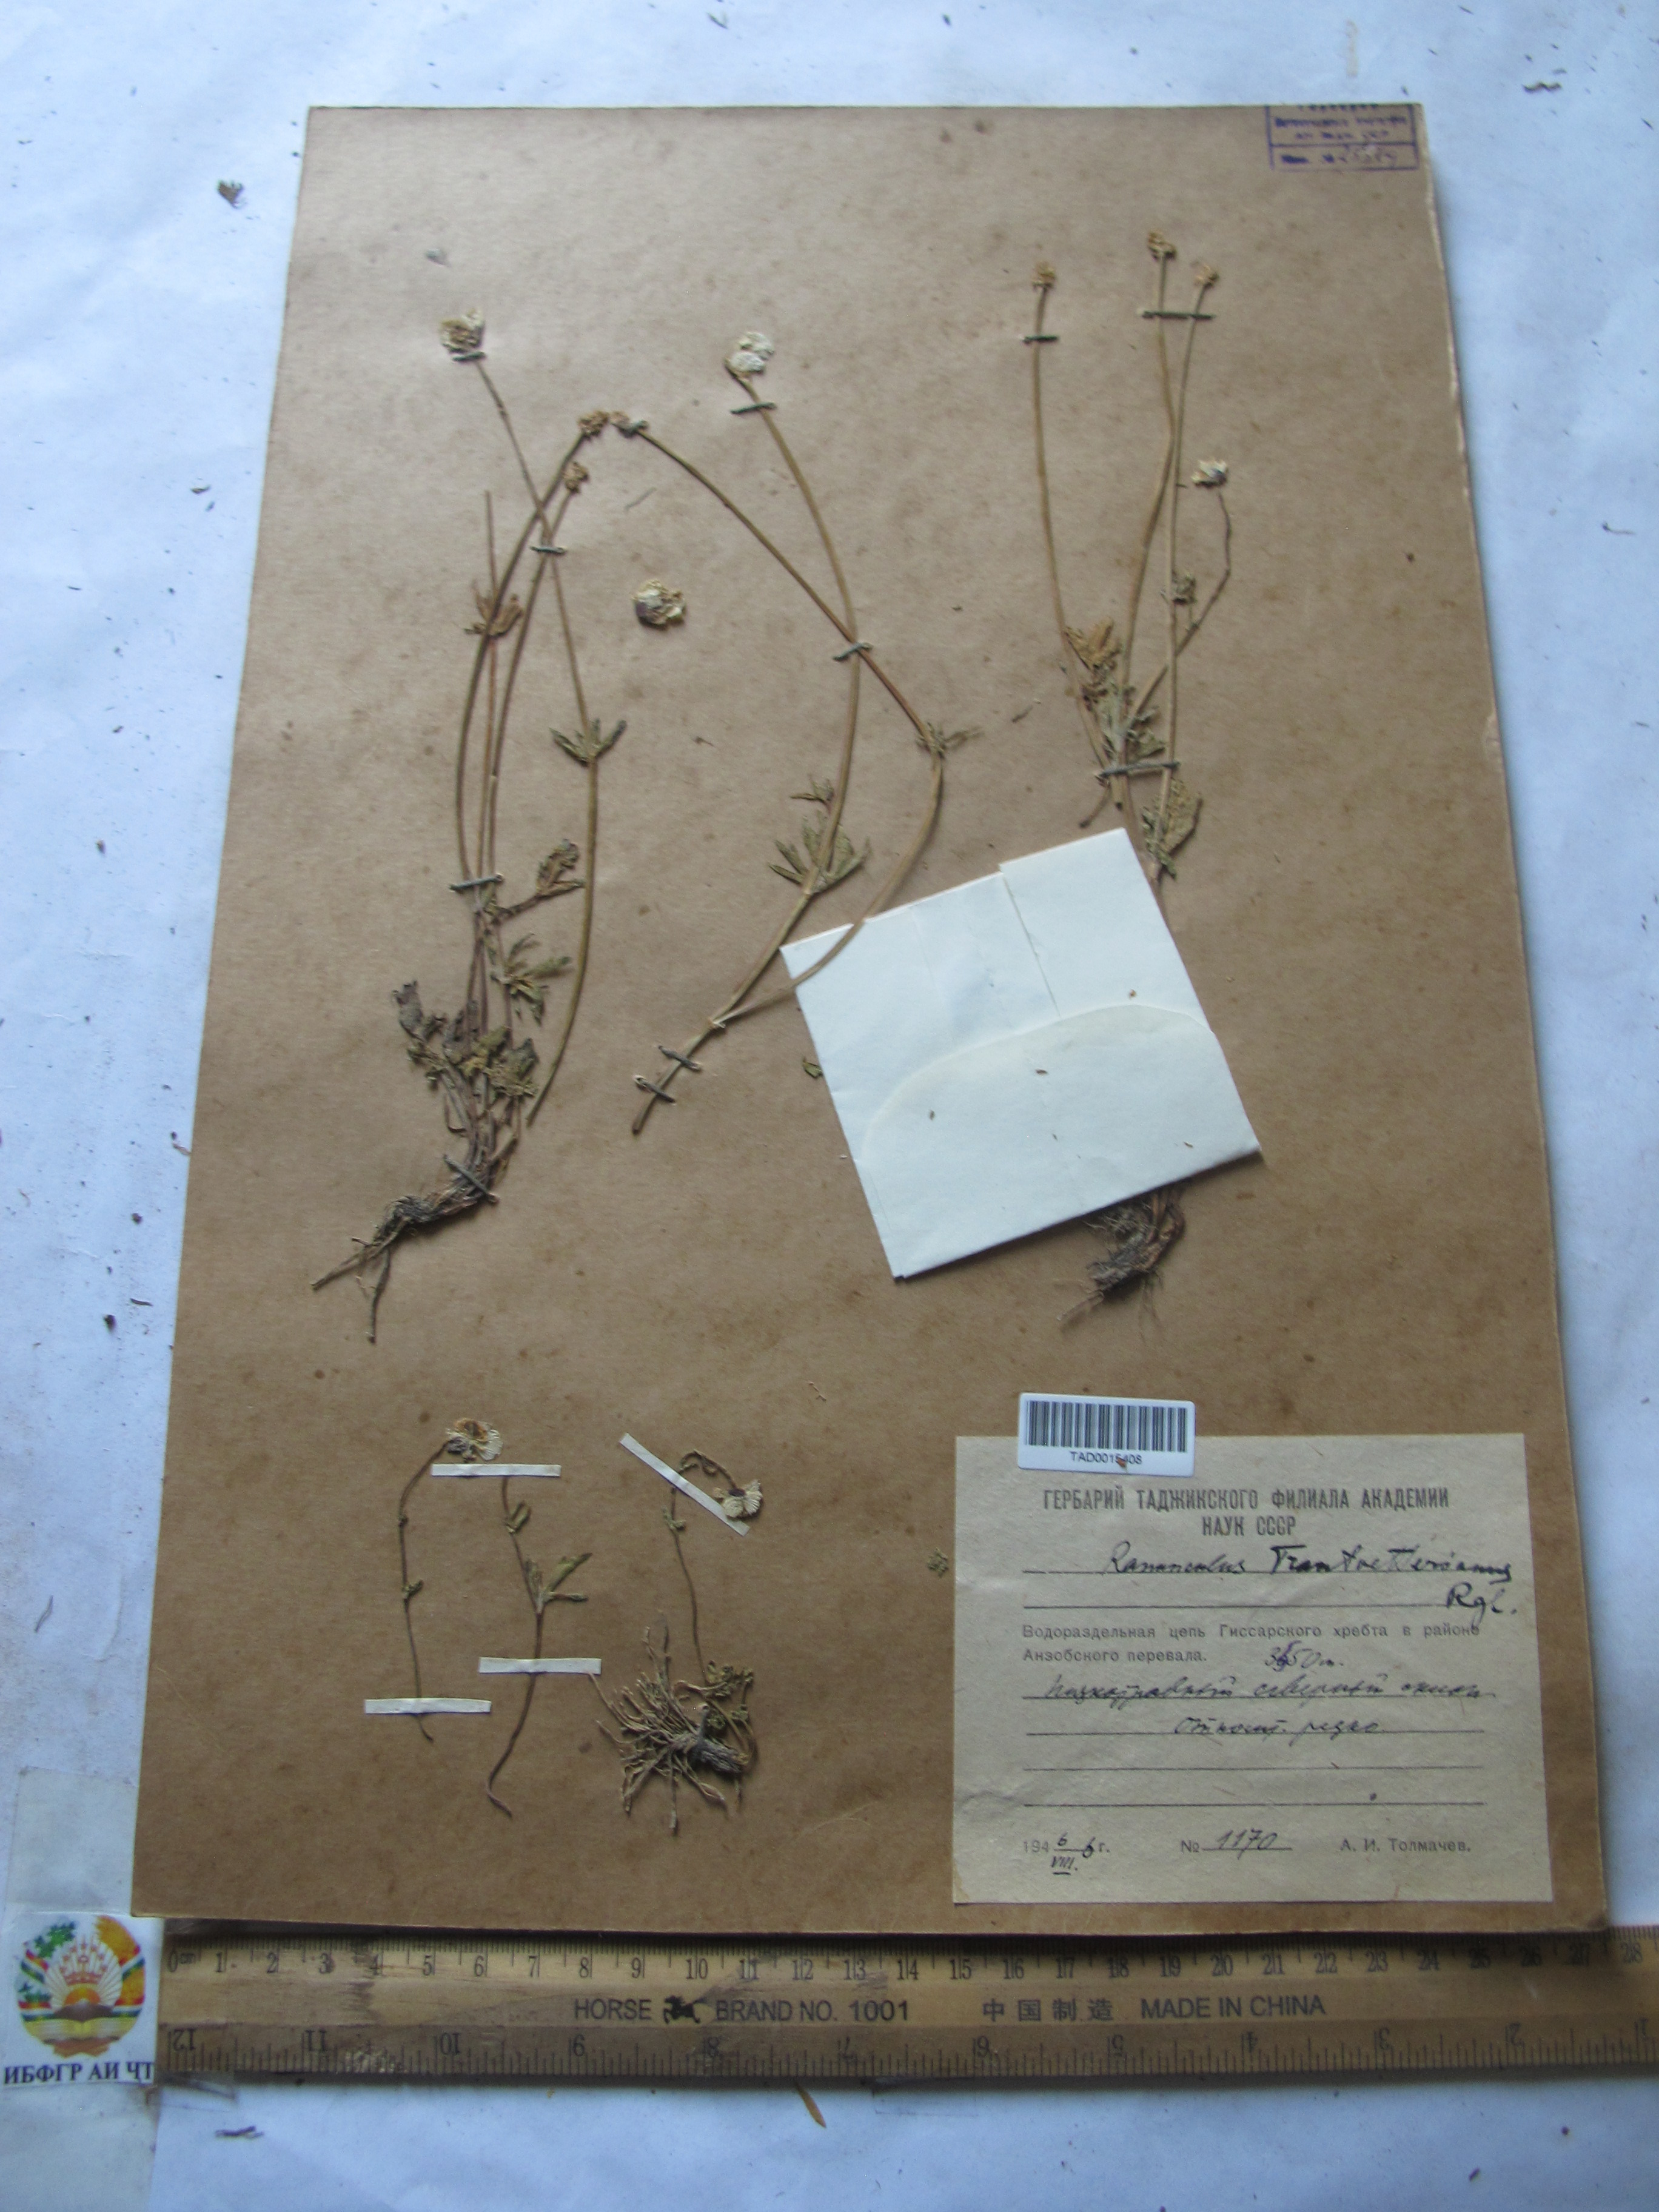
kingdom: Plantae
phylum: Tracheophyta
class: Magnoliopsida
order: Ranunculales
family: Ranunculaceae
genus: Ranunculus
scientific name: Ranunculus songaricus
